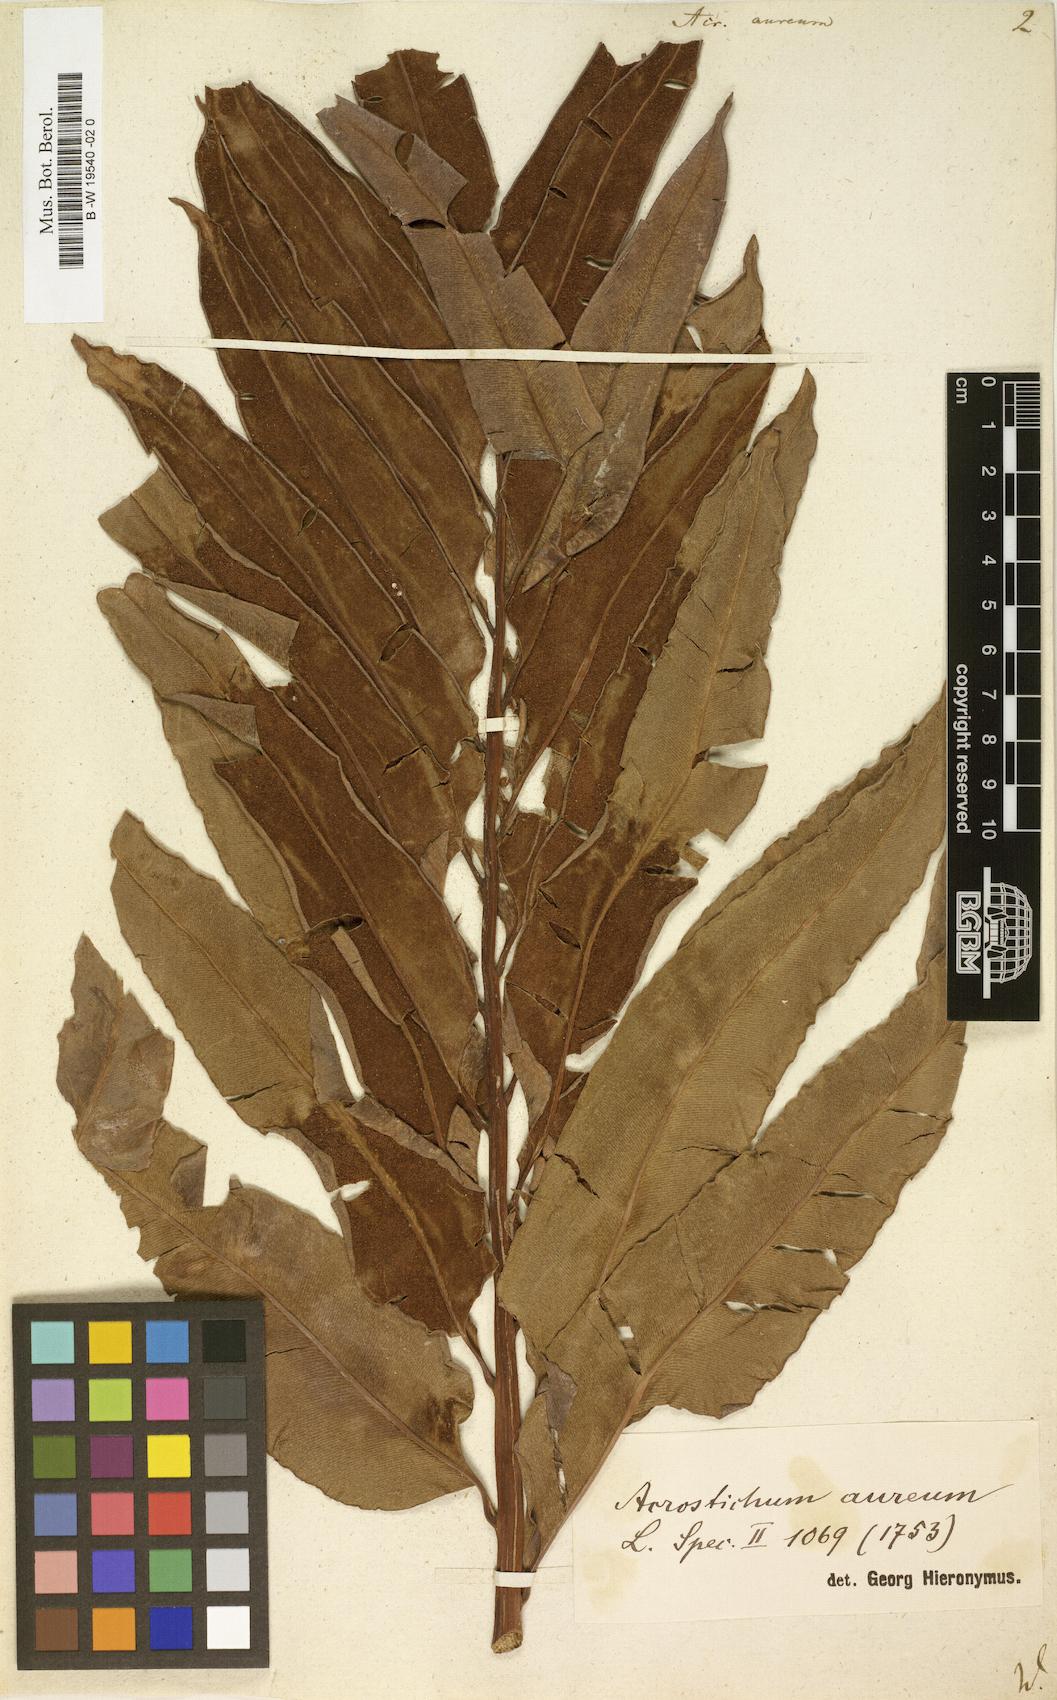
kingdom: Plantae
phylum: Tracheophyta
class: Polypodiopsida
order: Polypodiales
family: Pteridaceae
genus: Acrostichum
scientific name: Acrostichum aureum
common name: Leather fern
